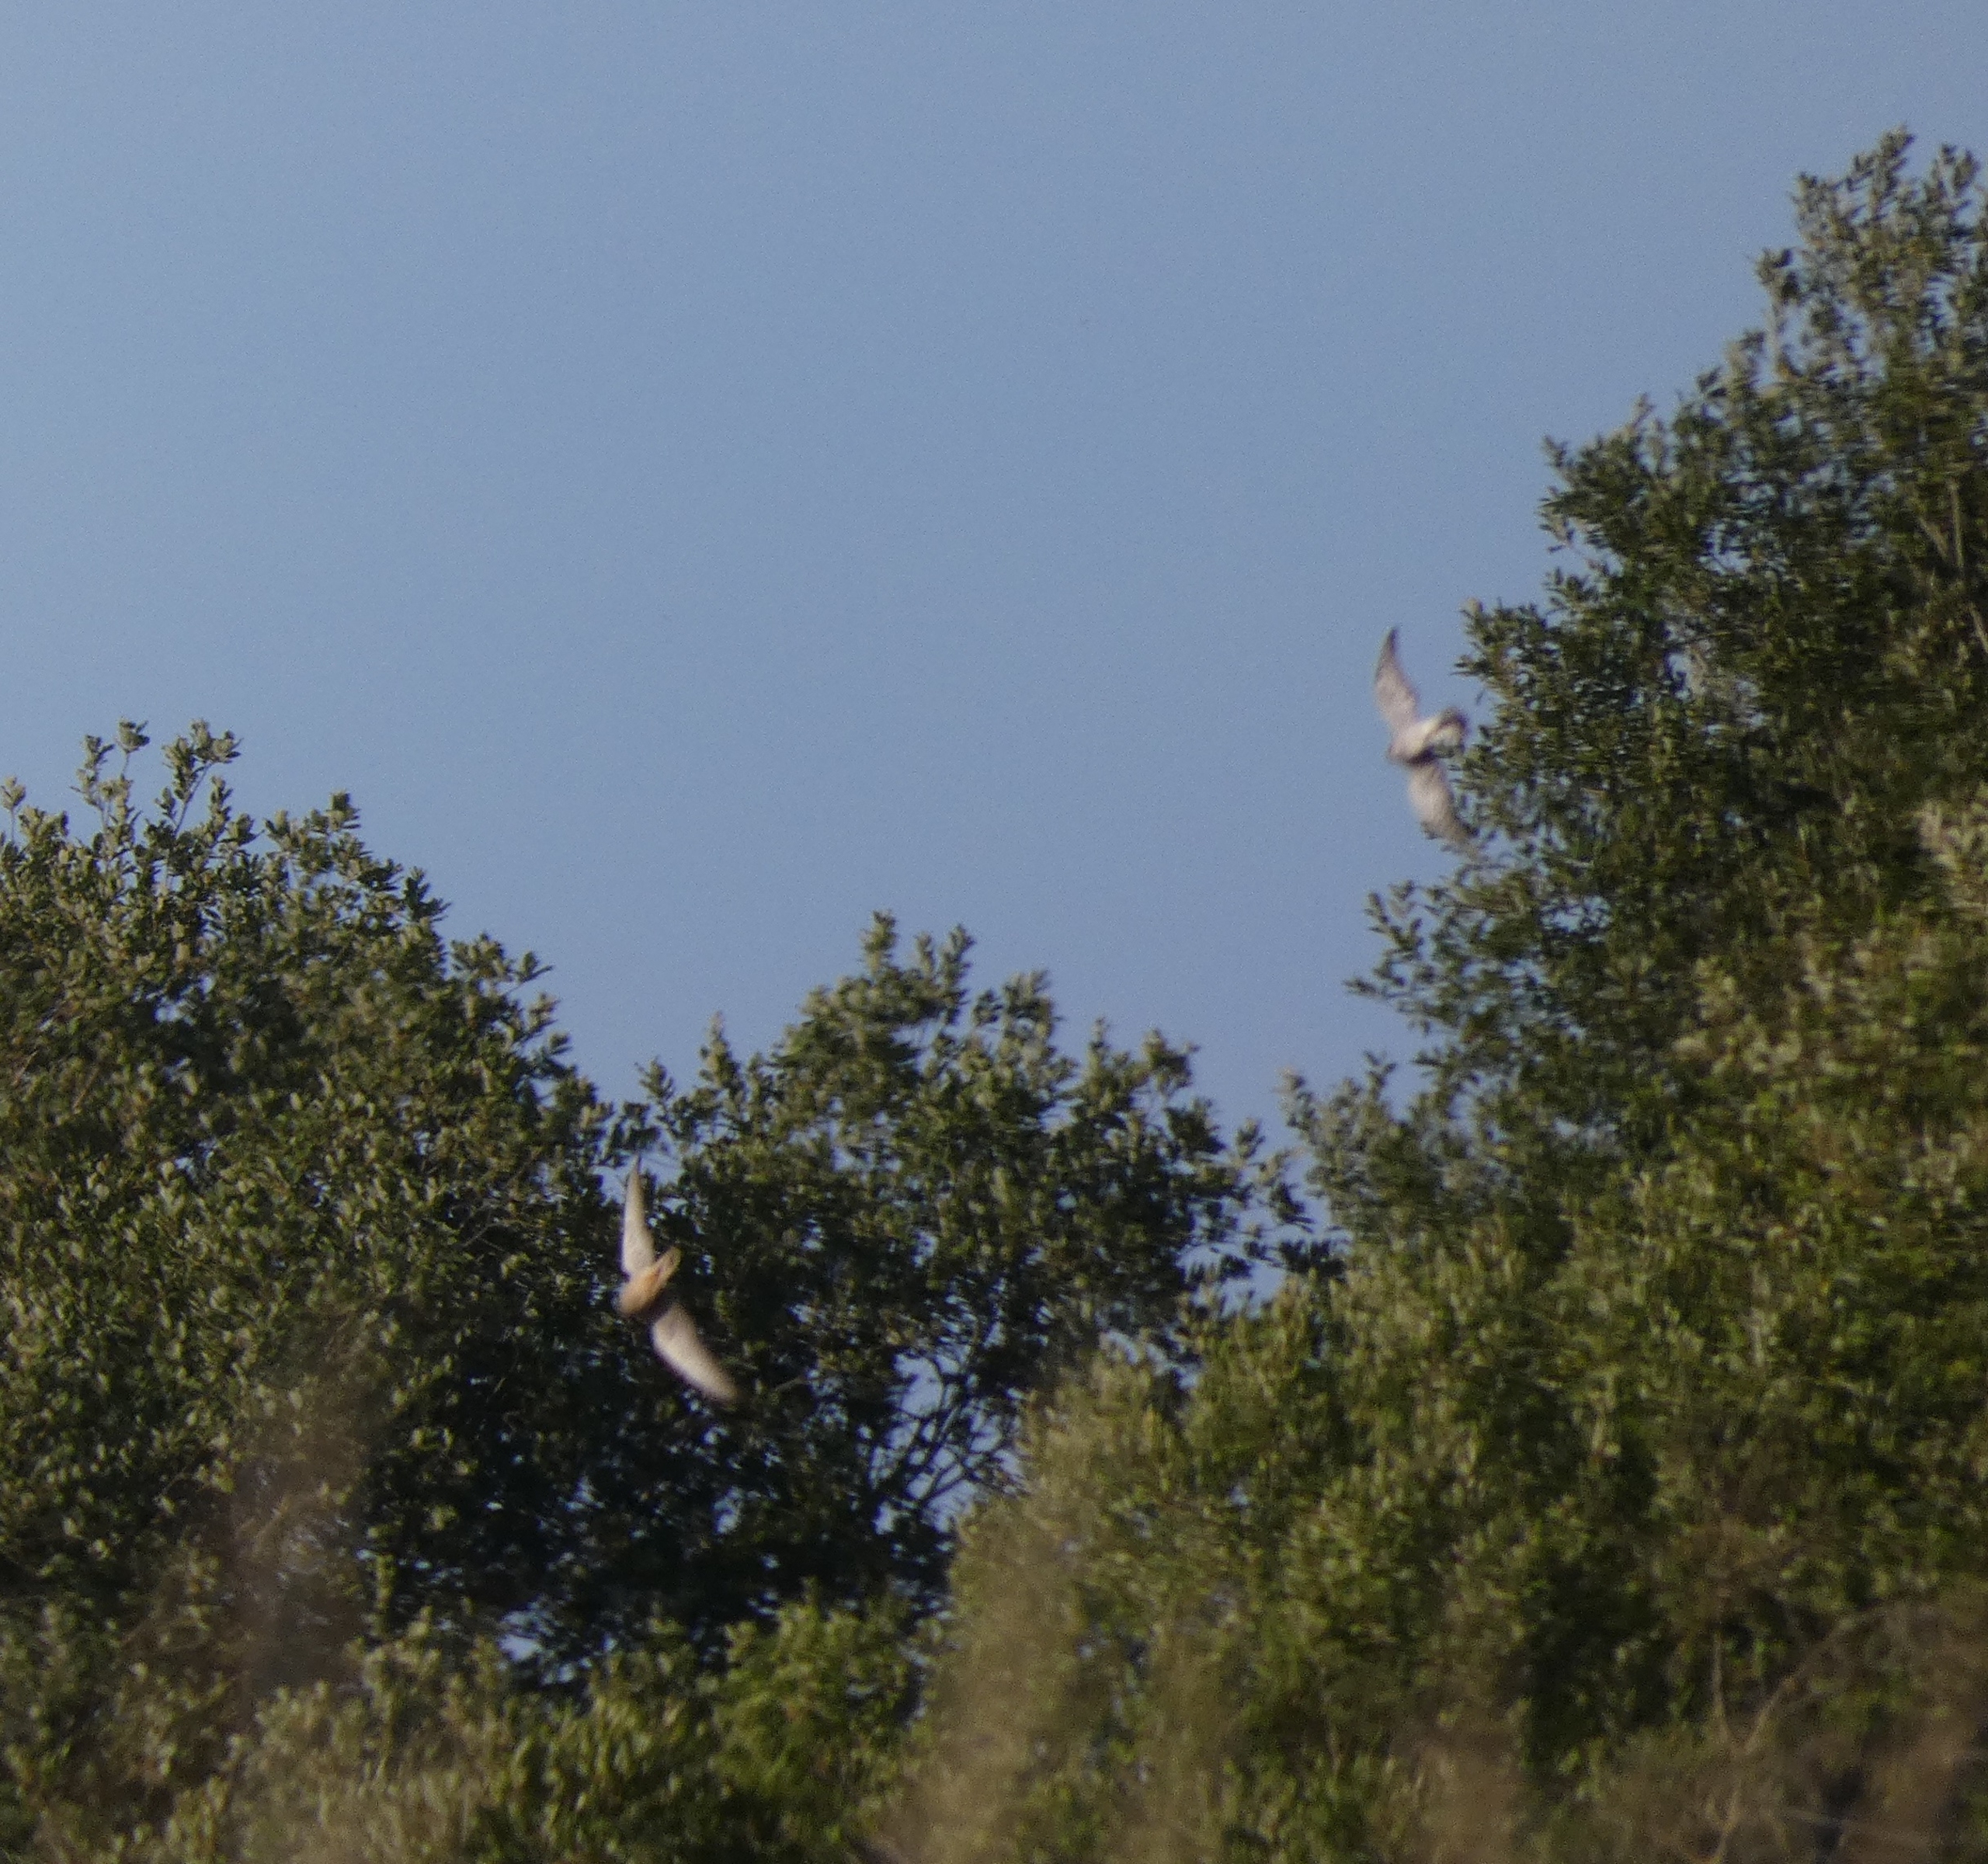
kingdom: Animalia
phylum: Chordata
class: Aves
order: Falconiformes
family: Falconidae
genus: Falco
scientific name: Falco tinnunculus
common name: Tårnfalk
